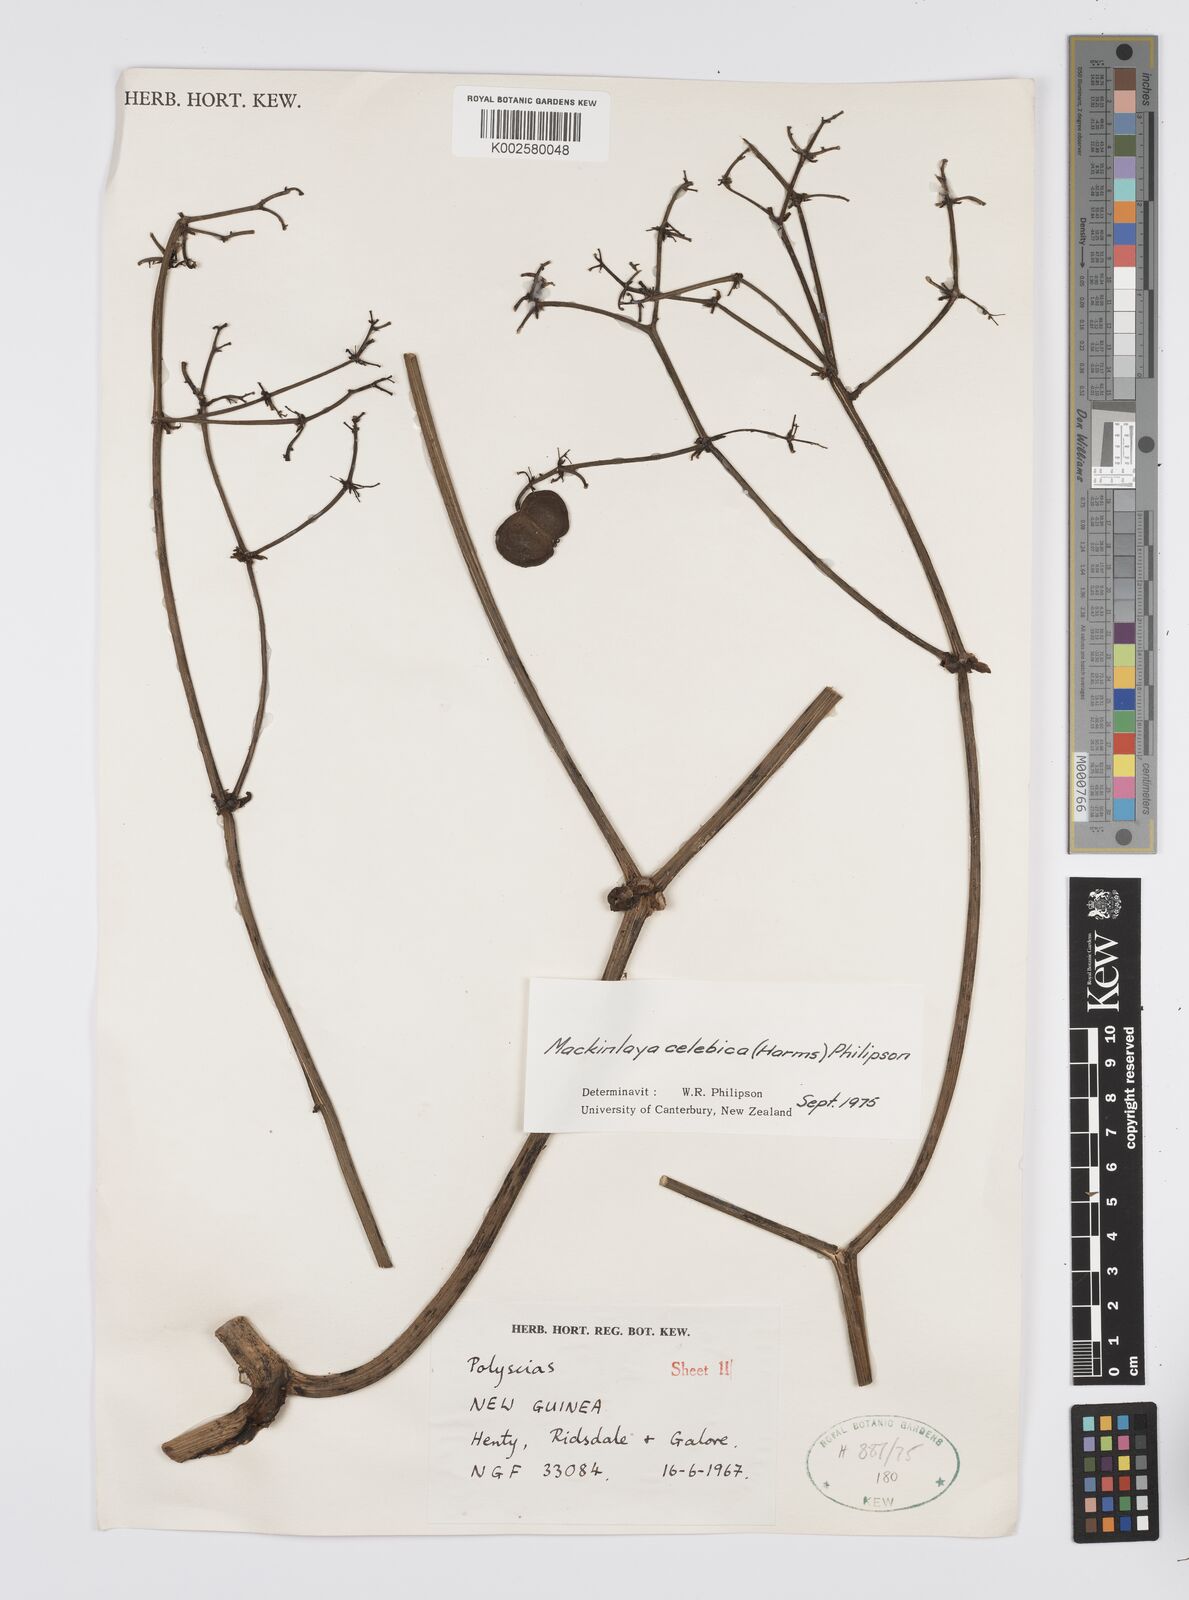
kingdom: Plantae
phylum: Tracheophyta
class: Magnoliopsida
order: Apiales
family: Apiaceae
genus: Mackinlaya
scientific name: Mackinlaya celebica
